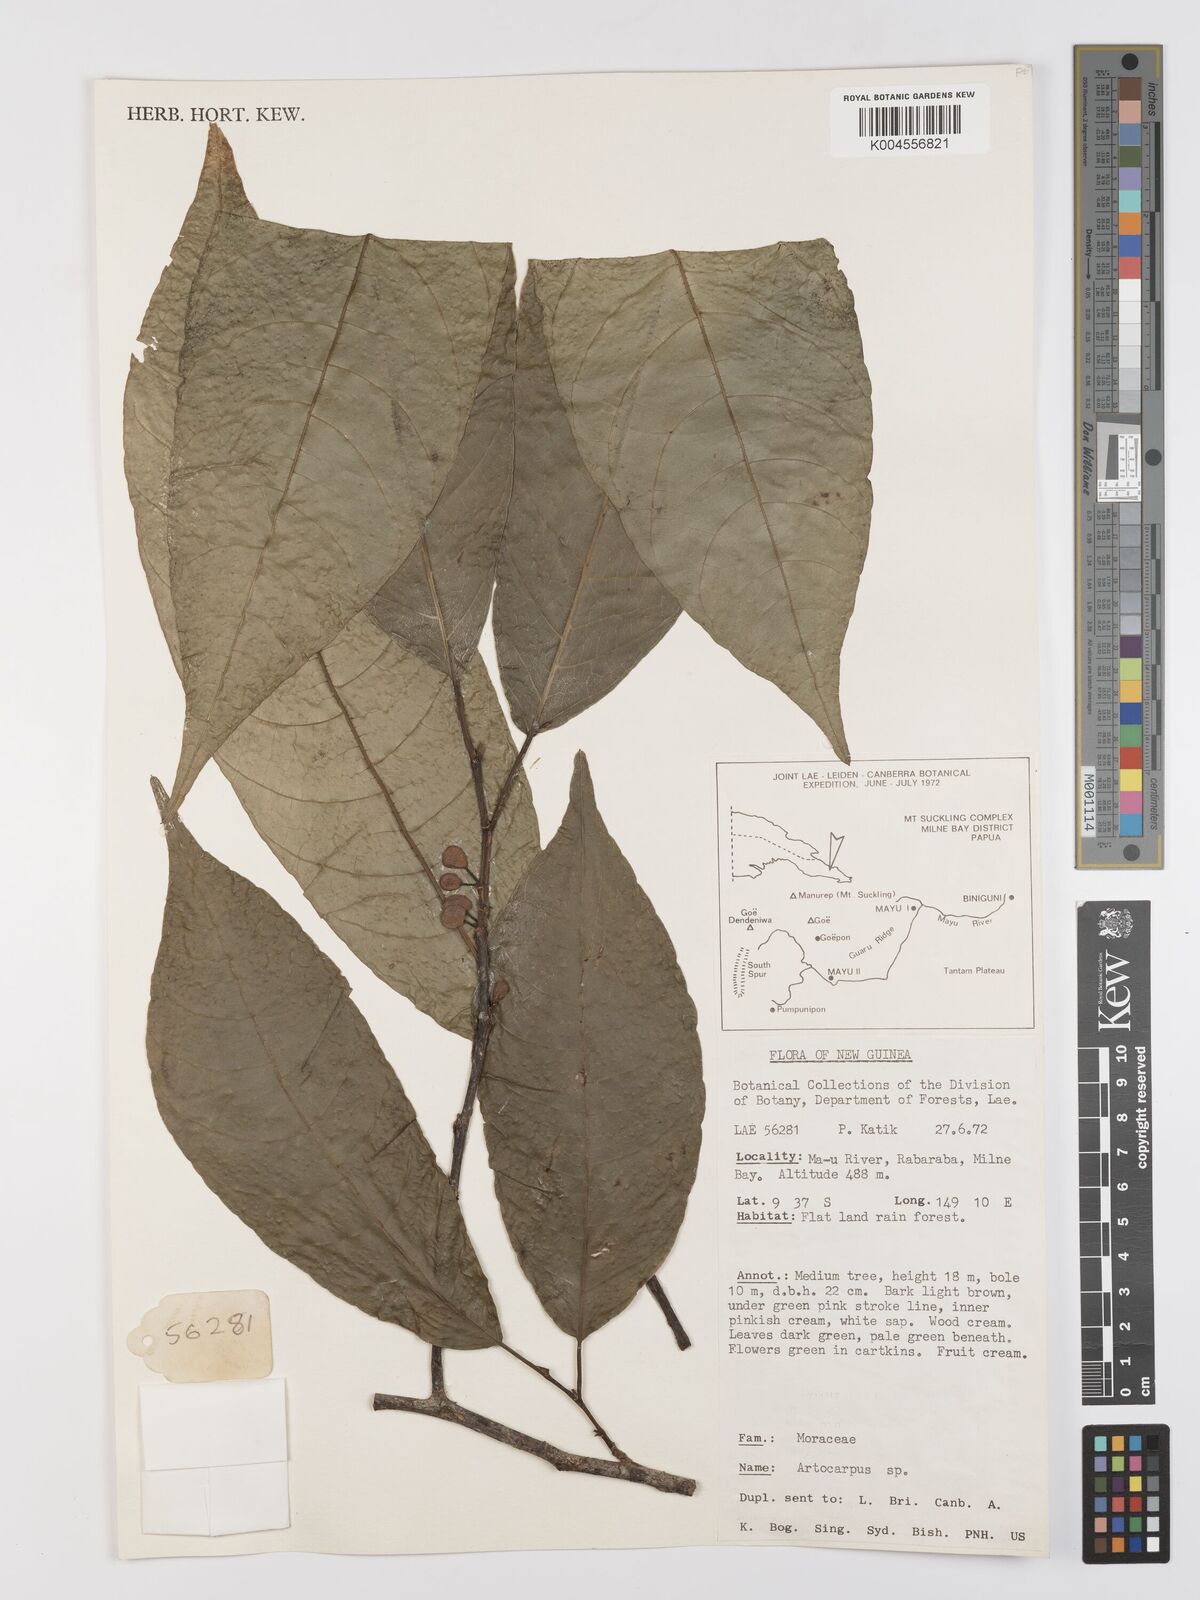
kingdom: Plantae
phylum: Tracheophyta
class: Magnoliopsida
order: Rosales
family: Moraceae
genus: Artocarpus
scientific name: Artocarpus
